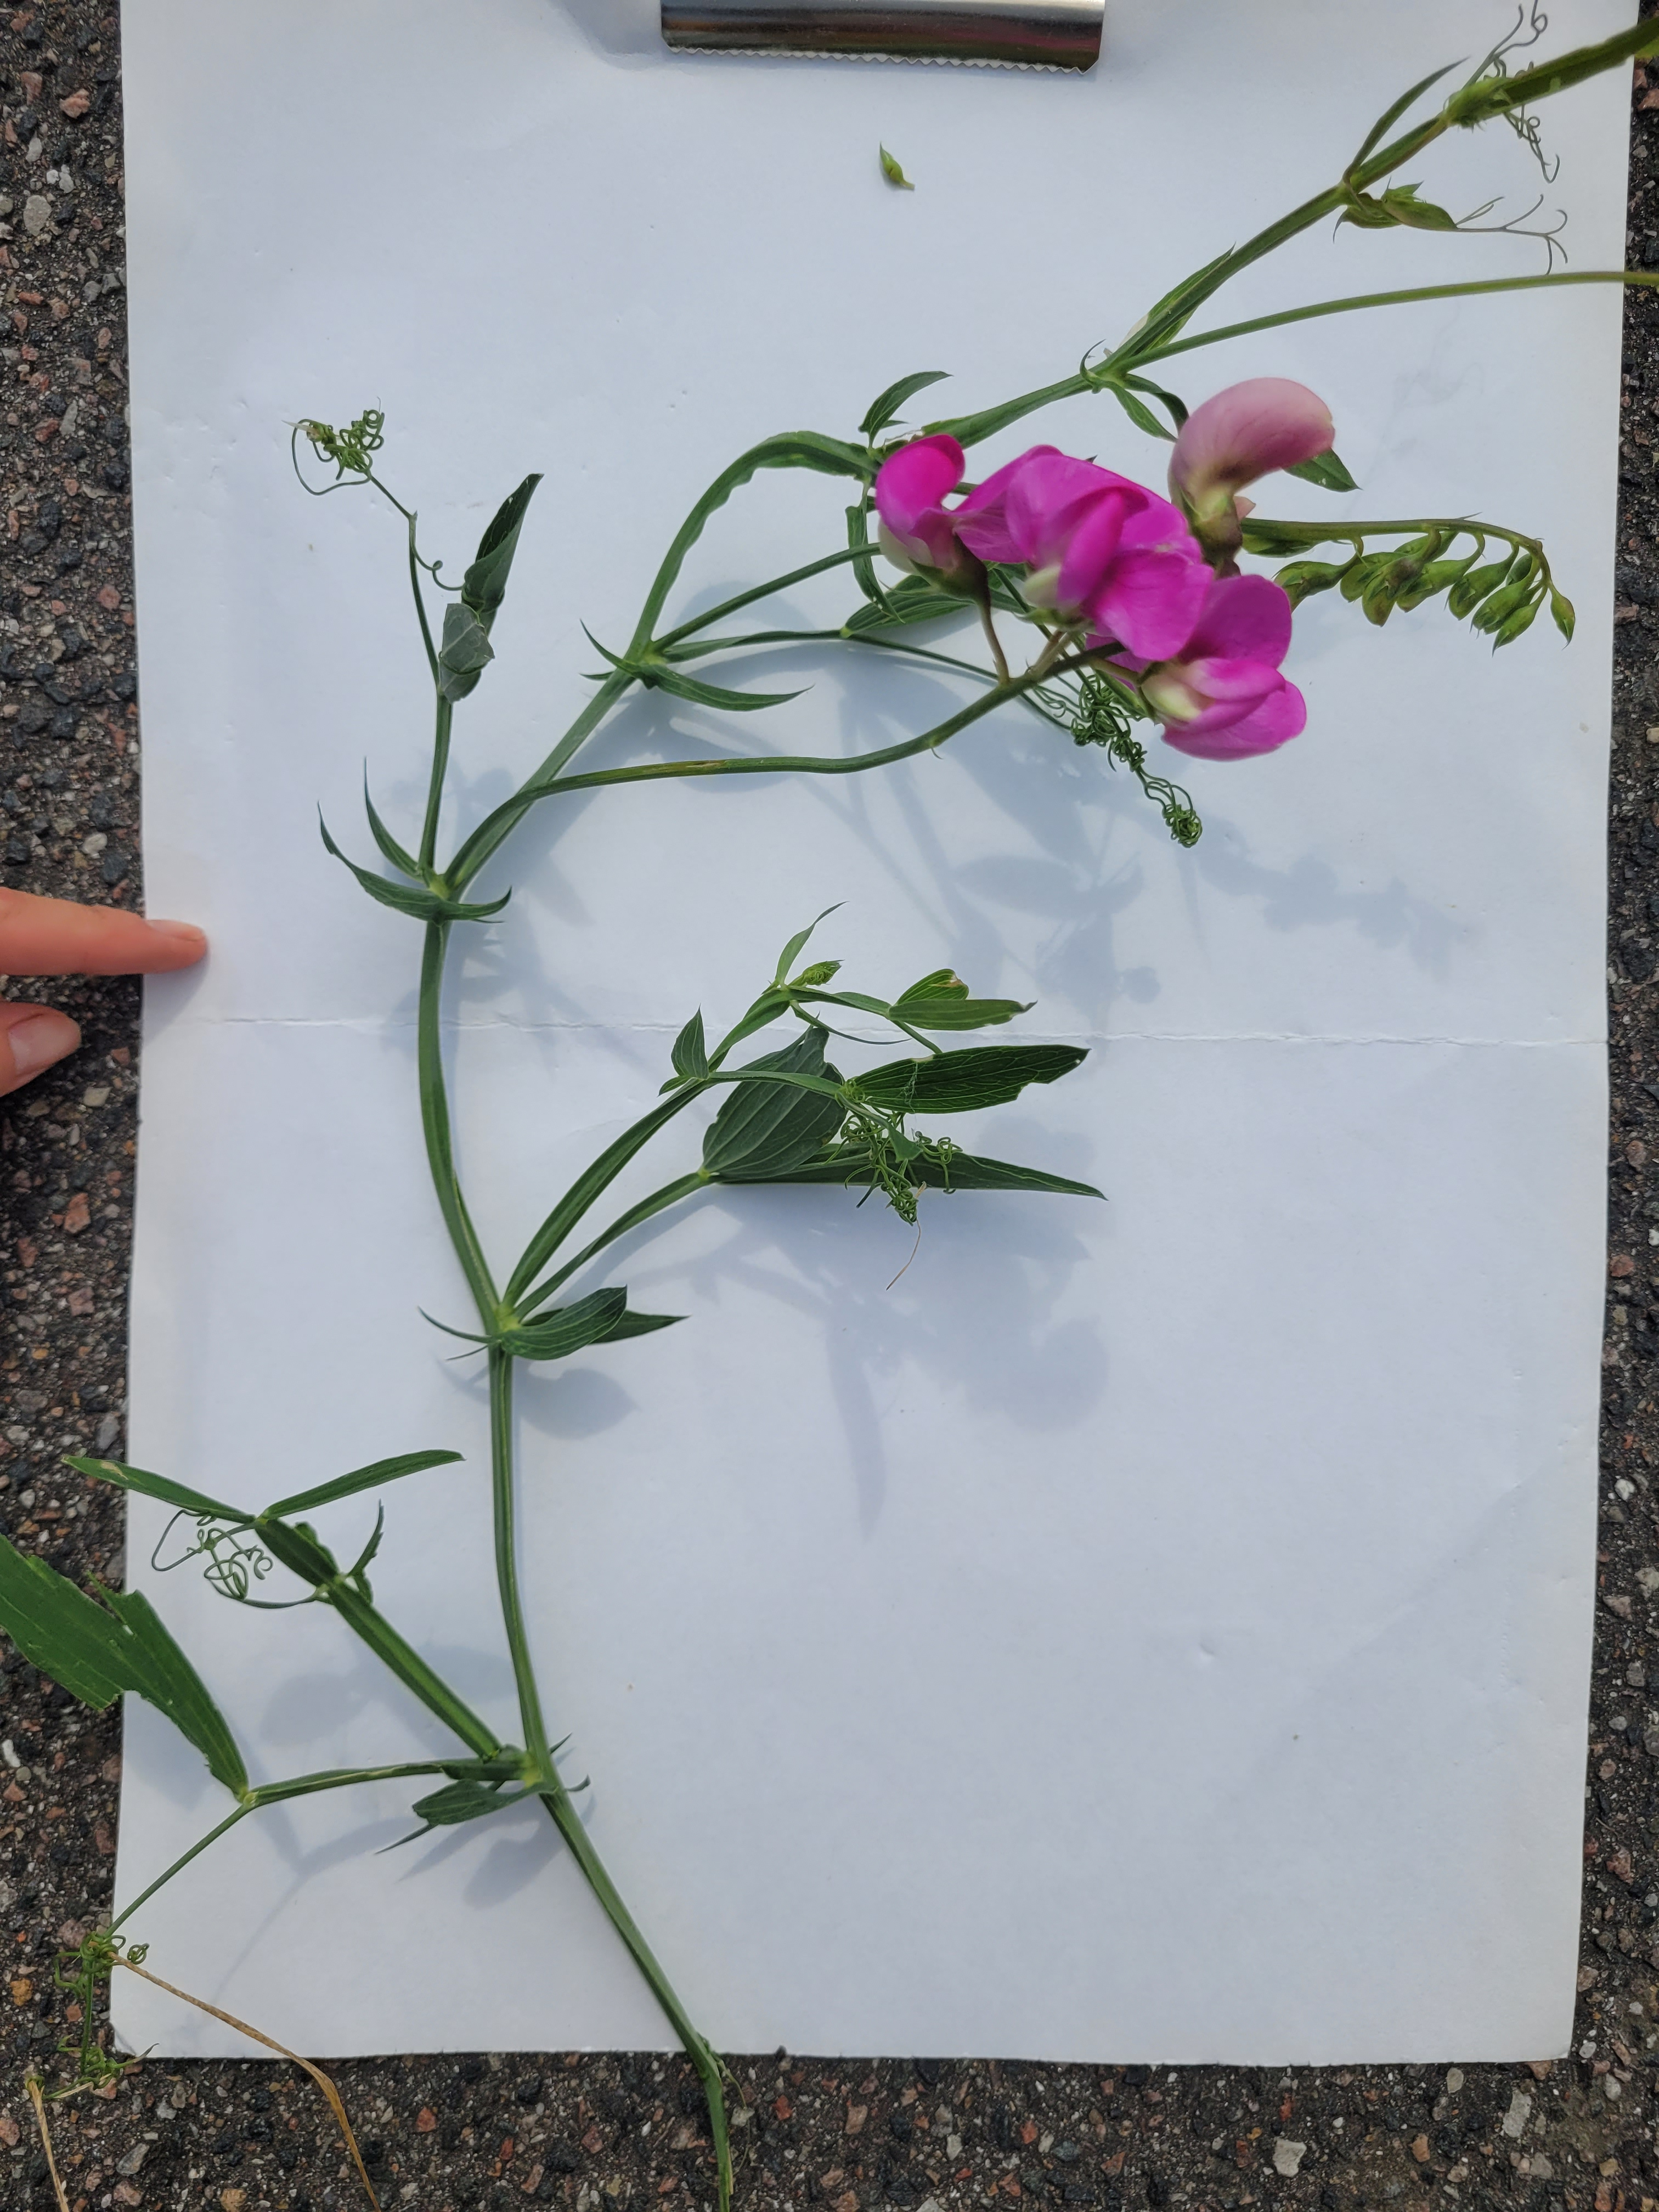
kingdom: Plantae
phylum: Tracheophyta
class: Magnoliopsida
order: Fabales
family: Fabaceae
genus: Lathyrus
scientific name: Lathyrus latifolius
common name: Flerårig ærteblomst
